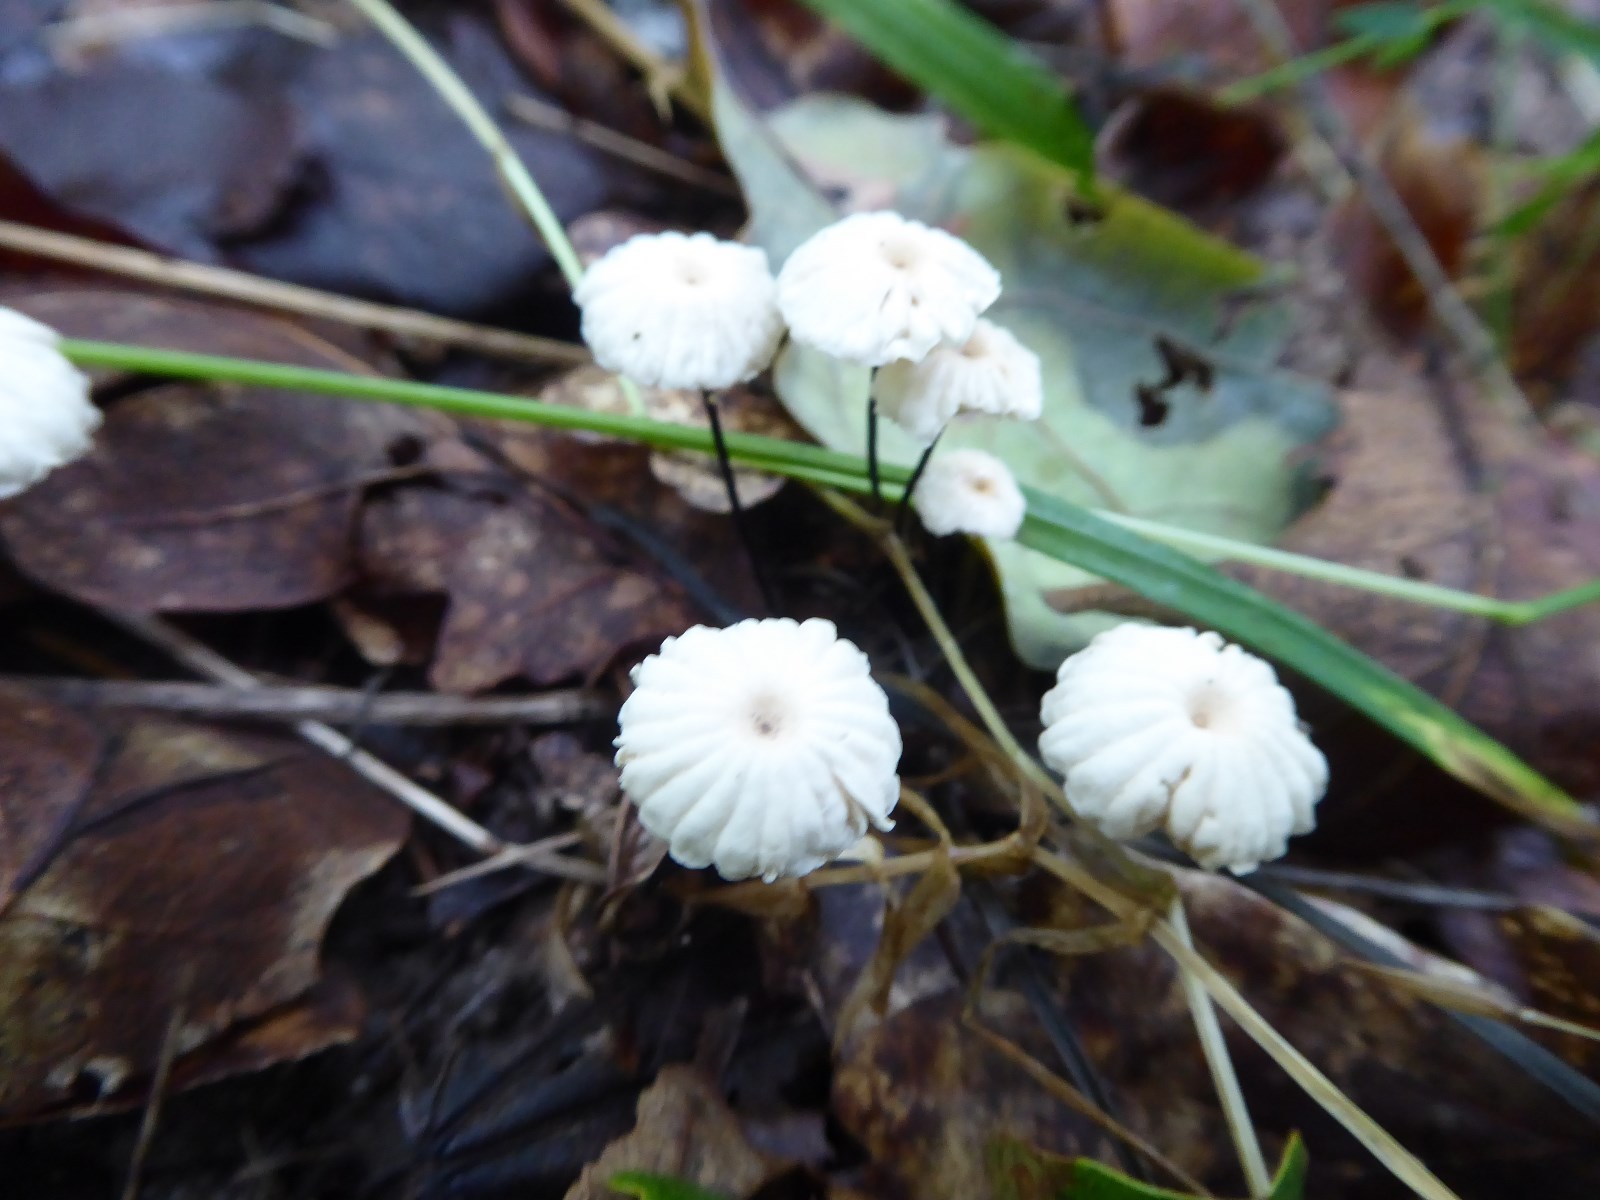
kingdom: Fungi
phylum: Basidiomycota
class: Agaricomycetes
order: Agaricales
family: Marasmiaceae
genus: Marasmius
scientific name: Marasmius rotula
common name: hjul-bruskhat
